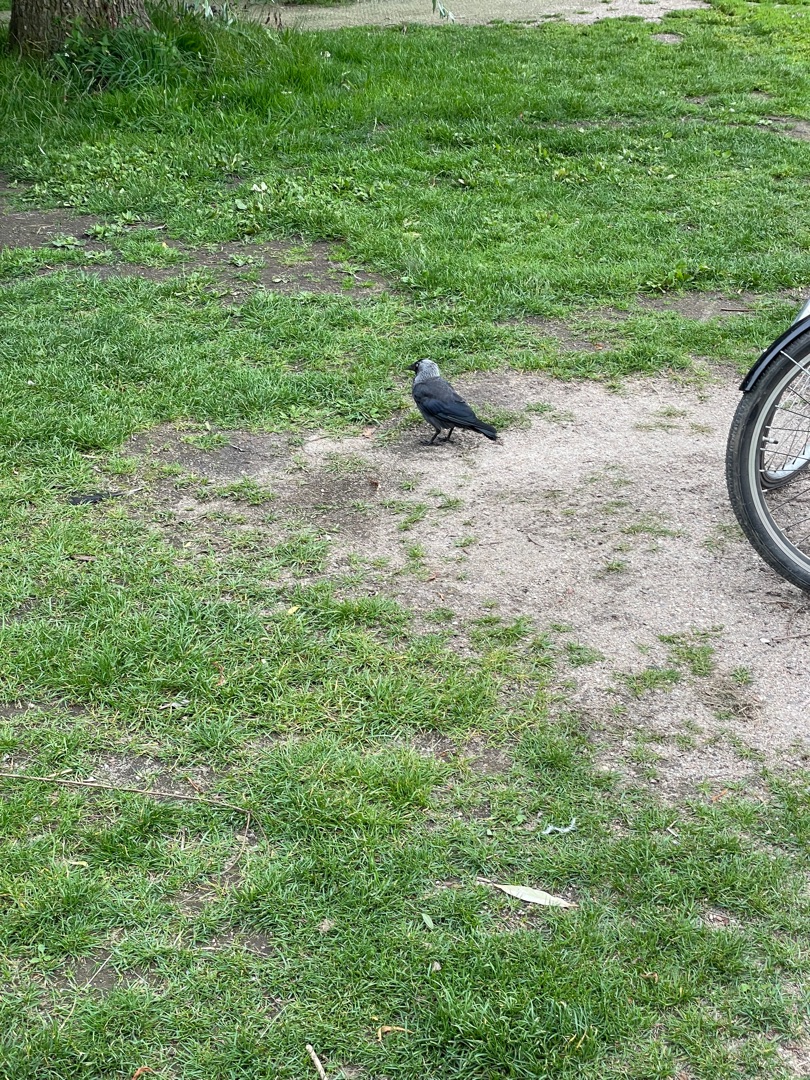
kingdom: Animalia
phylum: Chordata
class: Aves
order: Passeriformes
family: Corvidae
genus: Coloeus
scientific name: Coloeus monedula
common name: Allike
